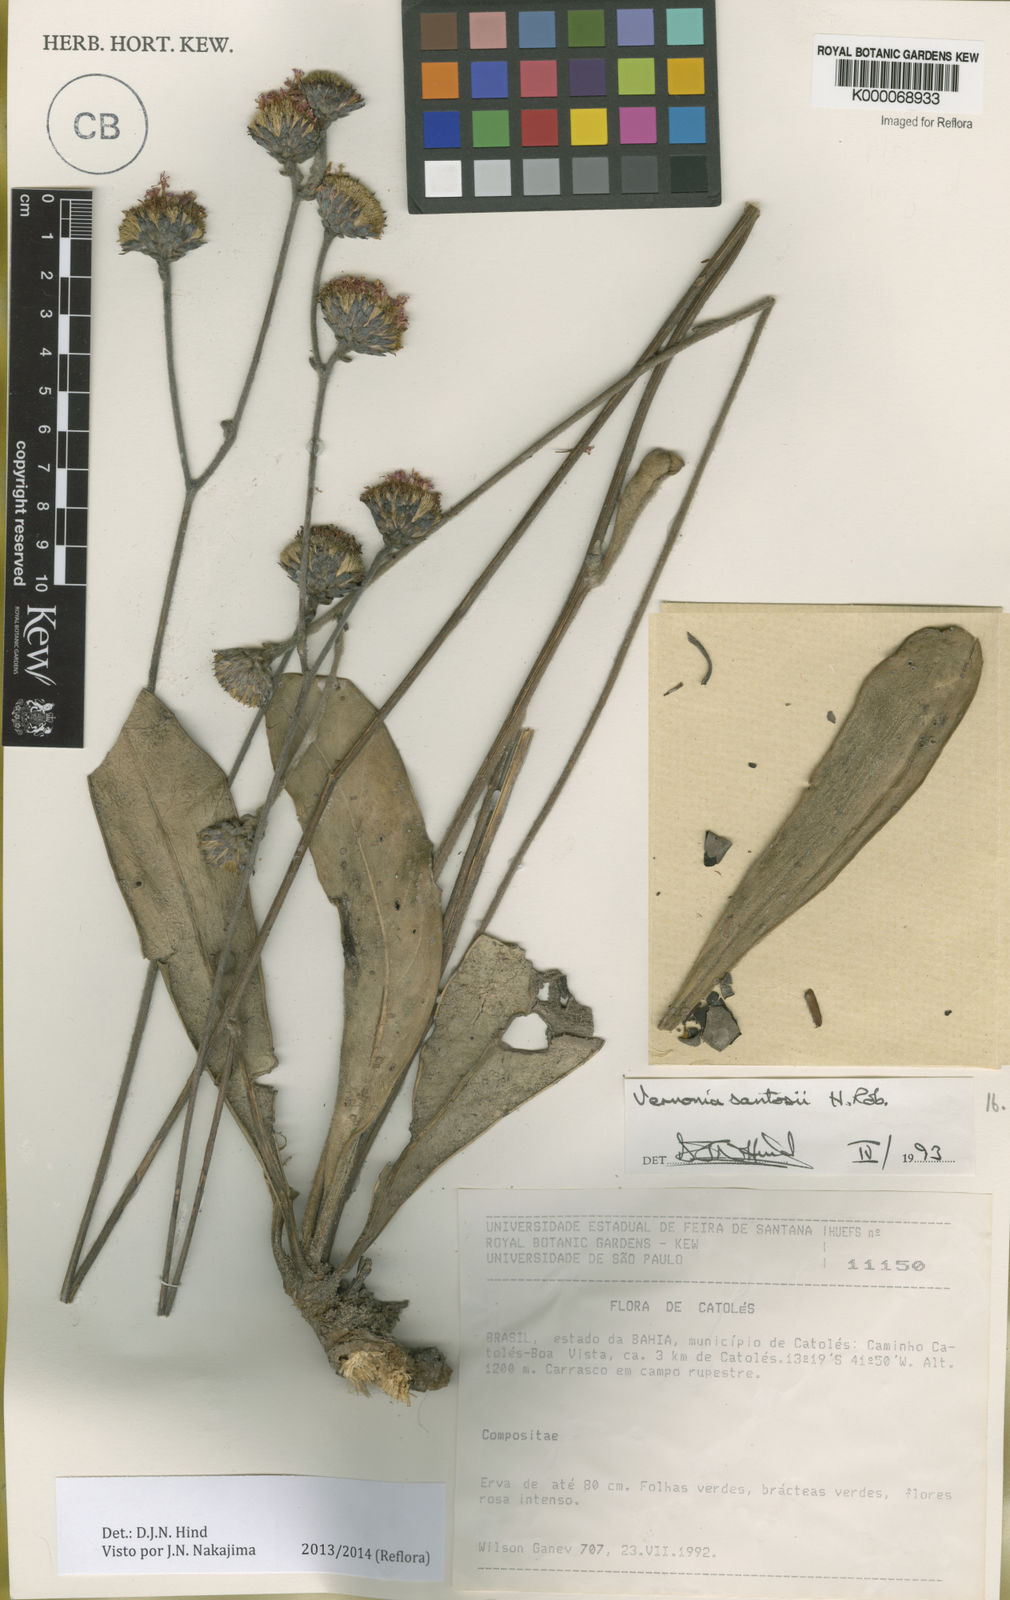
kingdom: Plantae
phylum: Tracheophyta
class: Magnoliopsida
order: Asterales
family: Asteraceae
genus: Lessingianthus
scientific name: Lessingianthus santosii
